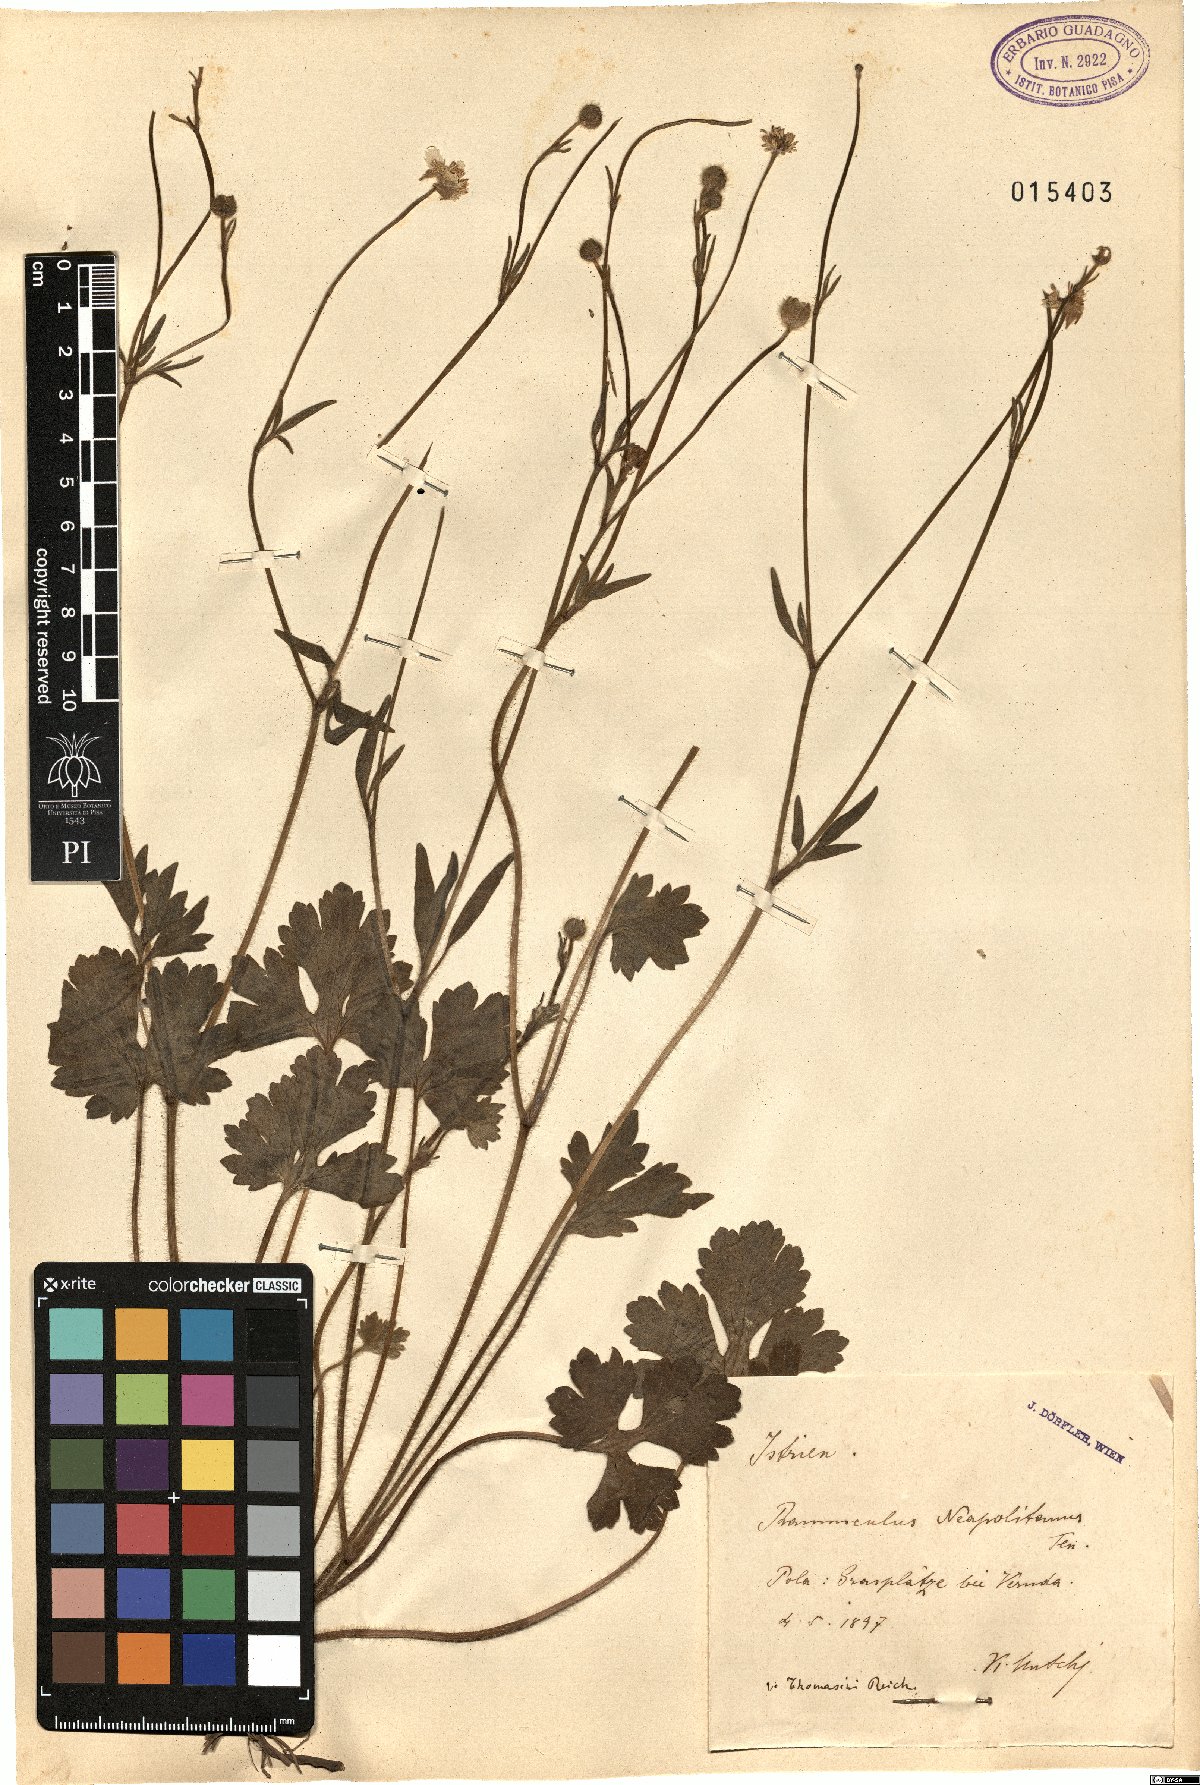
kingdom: Plantae
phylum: Tracheophyta
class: Magnoliopsida
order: Ranunculales
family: Ranunculaceae
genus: Ranunculus
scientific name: Ranunculus neapolitanus
